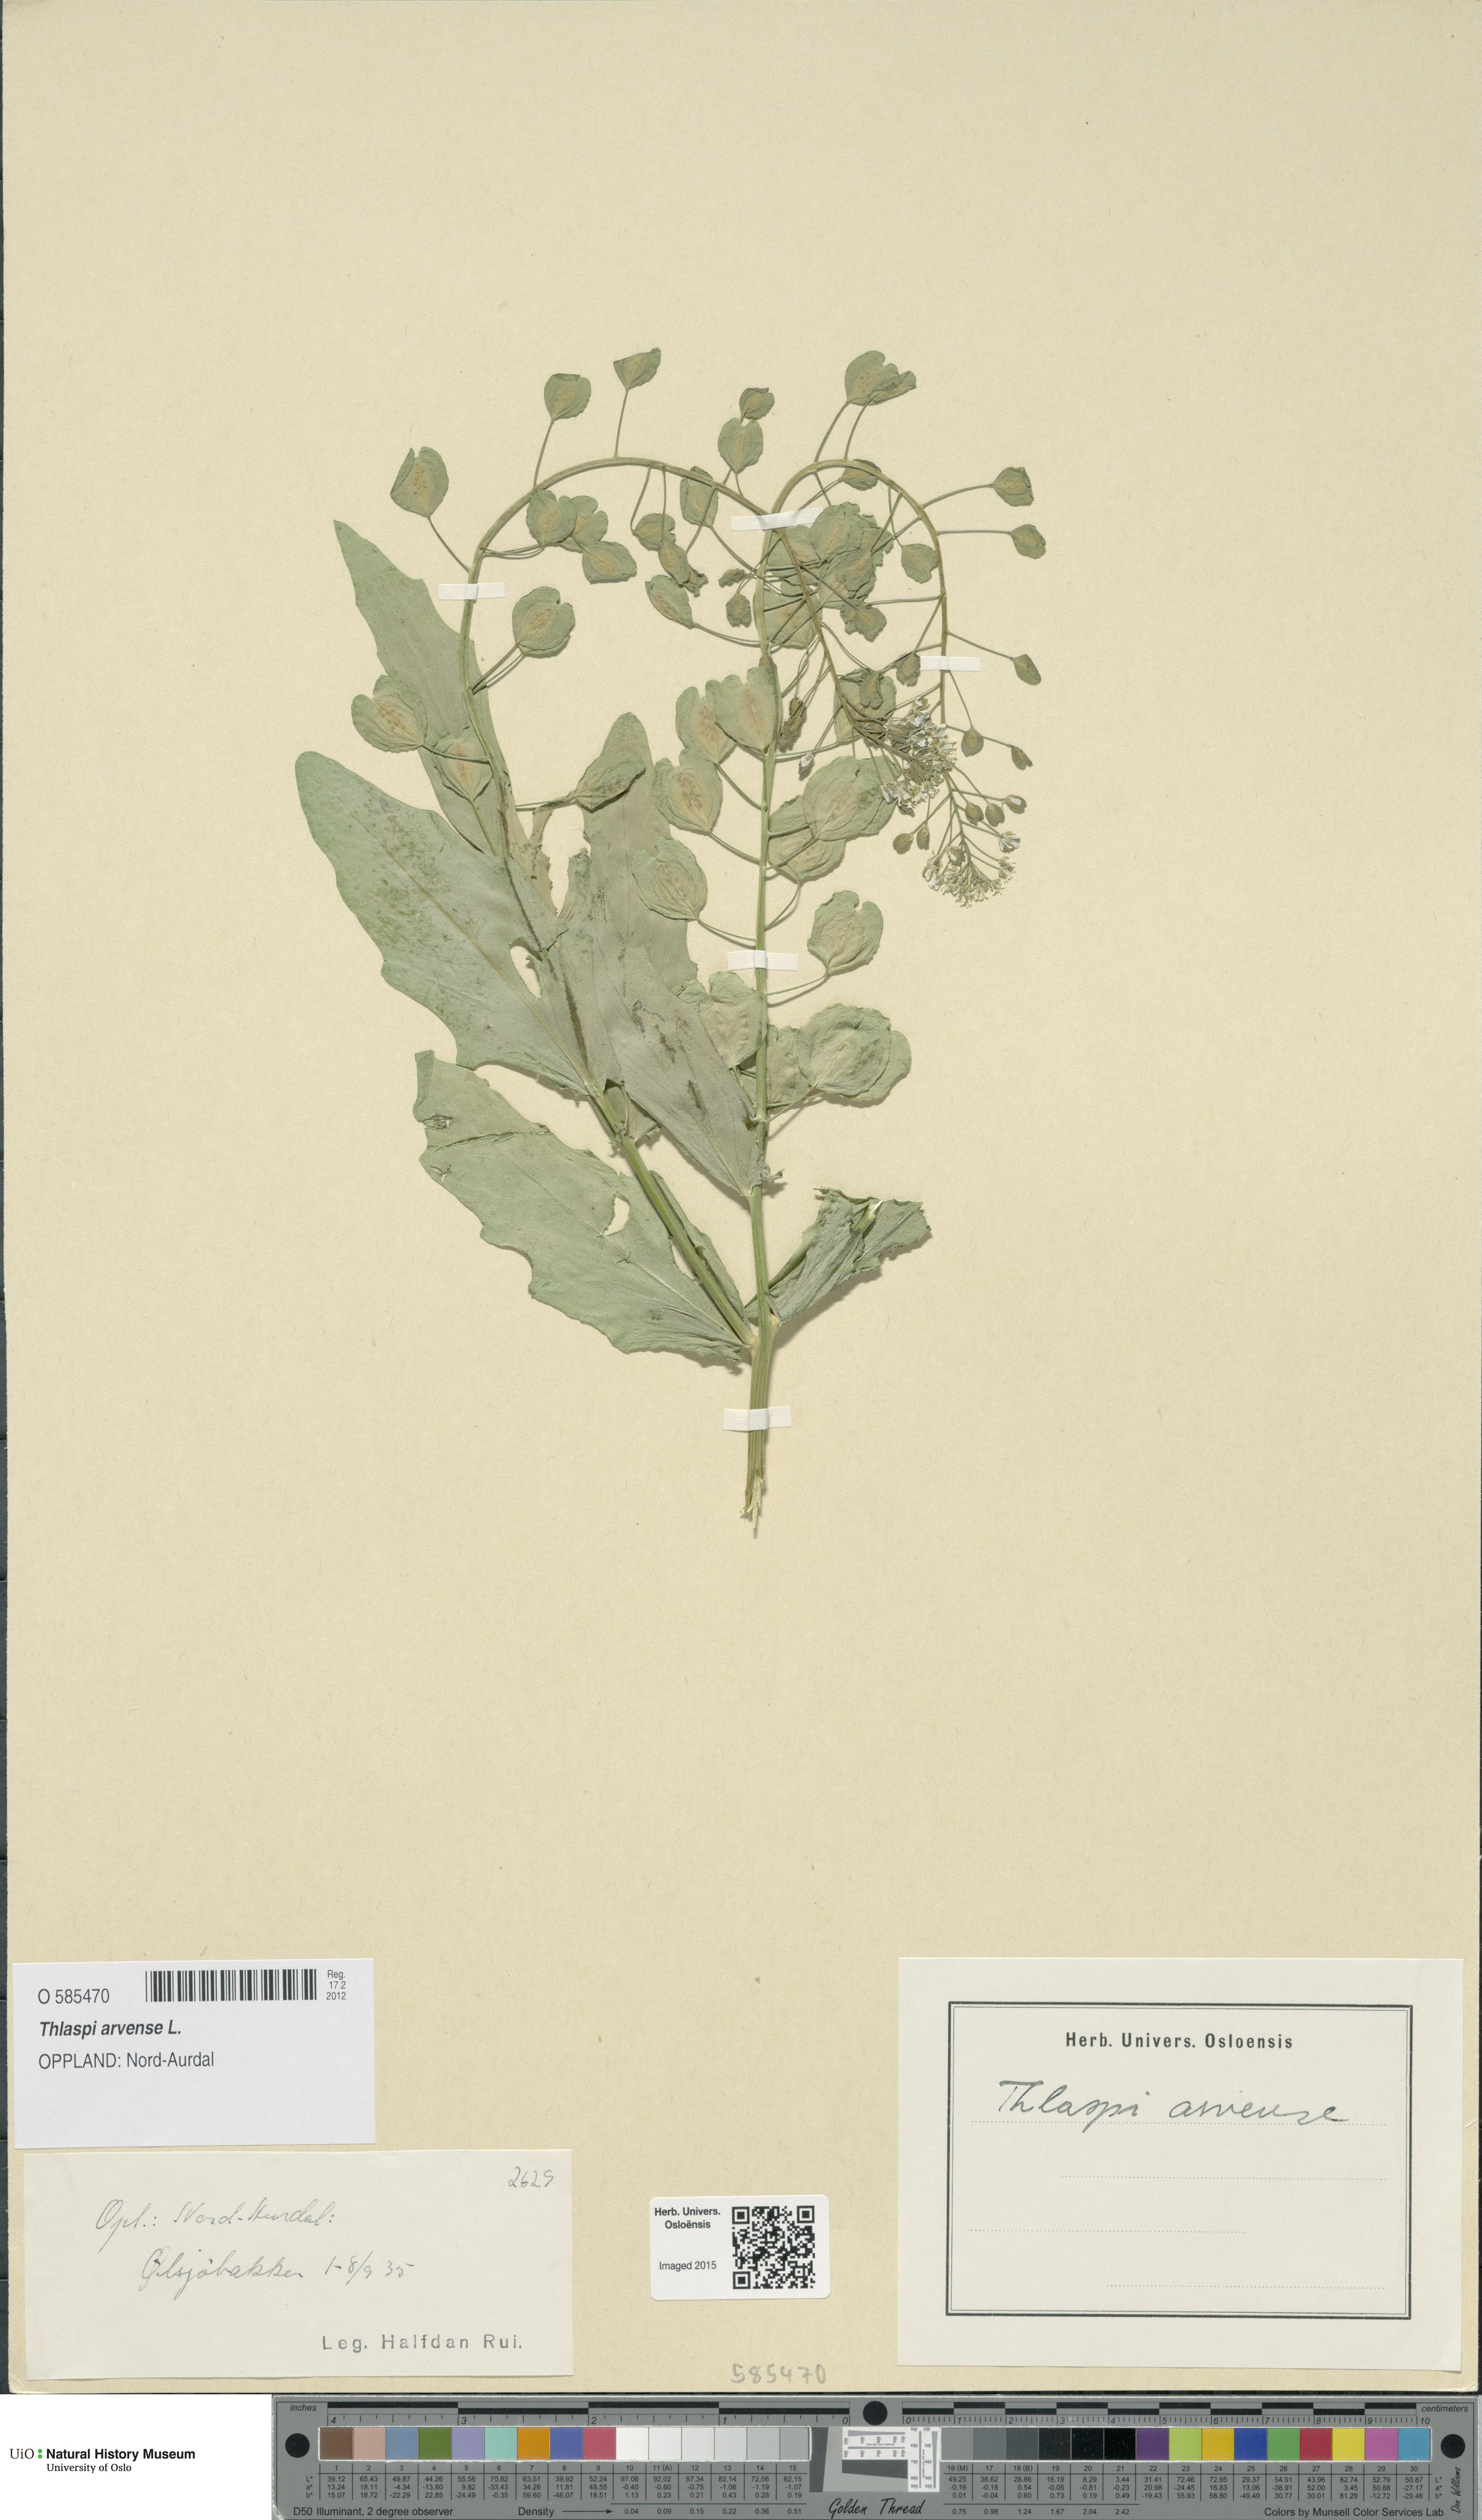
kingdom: Plantae
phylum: Tracheophyta
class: Magnoliopsida
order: Brassicales
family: Brassicaceae
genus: Thlaspi
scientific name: Thlaspi arvense
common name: Field pennycress
